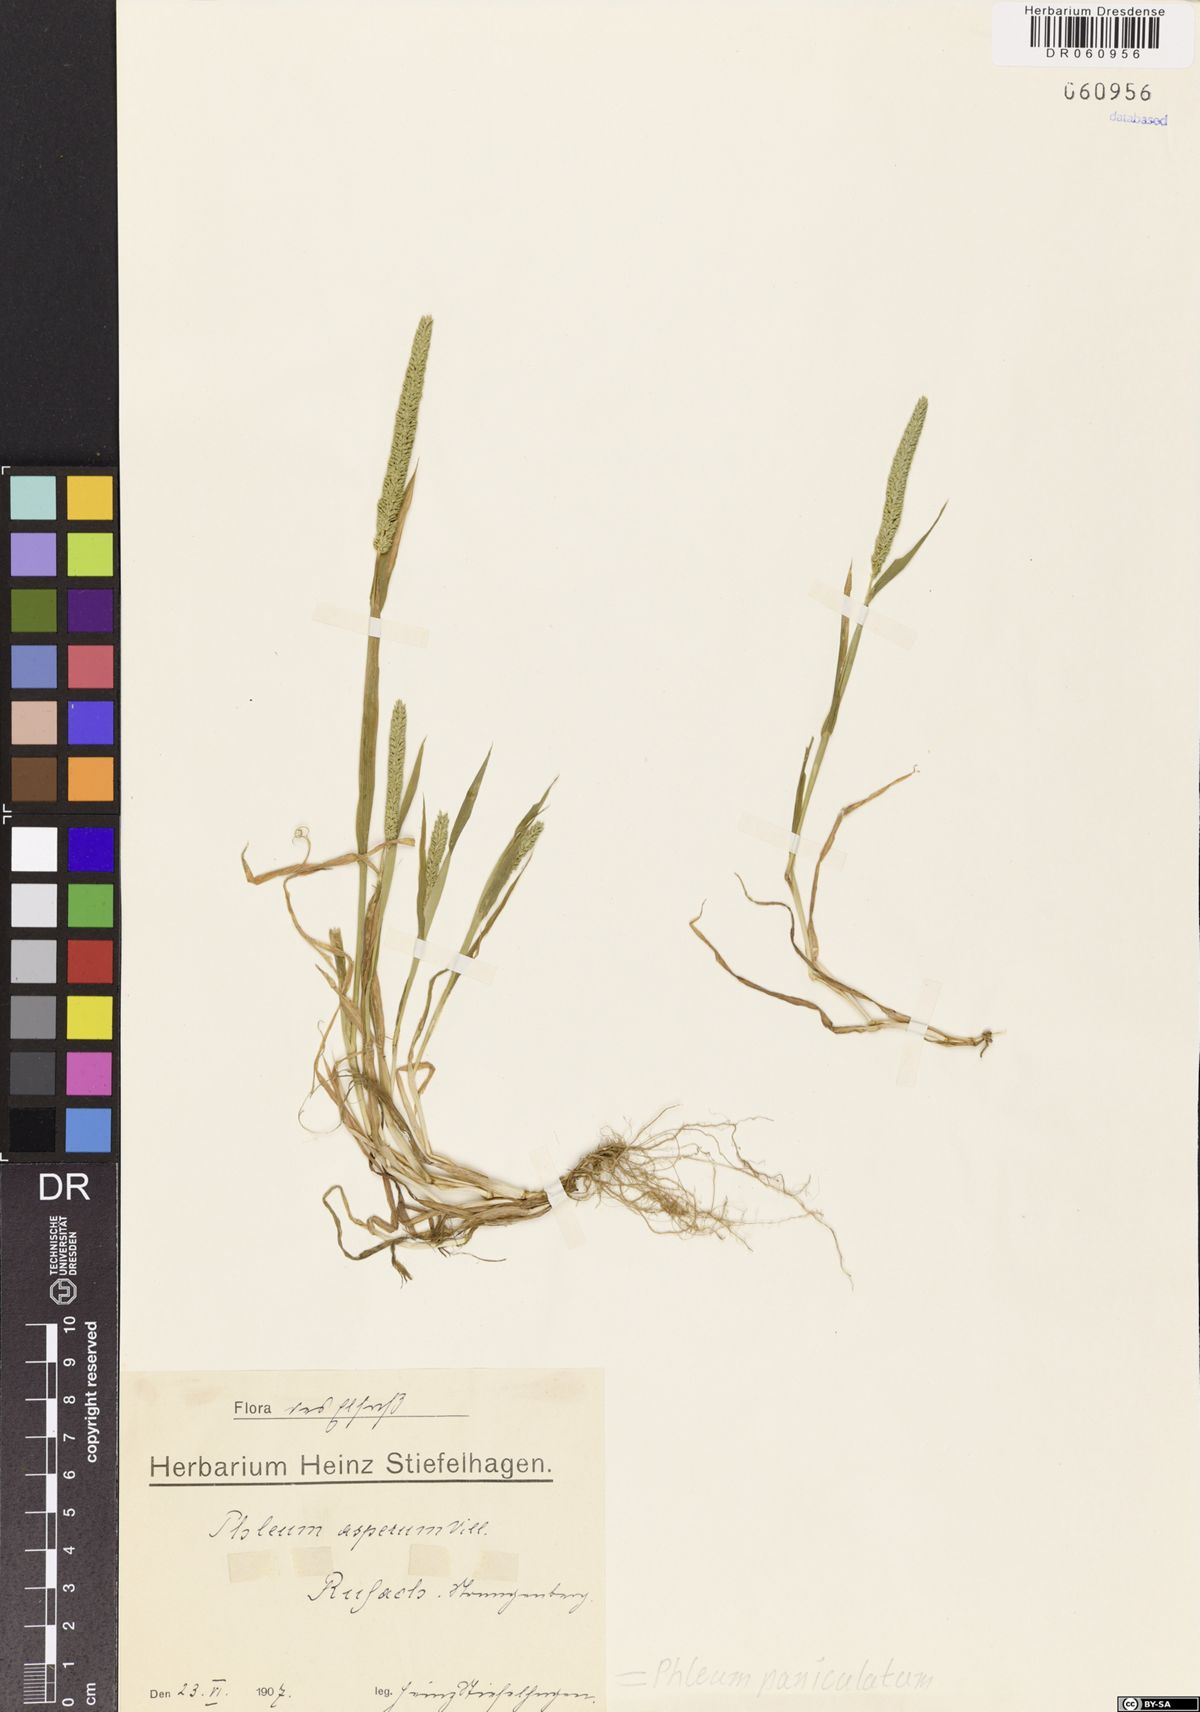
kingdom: Plantae
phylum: Tracheophyta
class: Liliopsida
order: Poales
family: Poaceae
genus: Phleum
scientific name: Phleum paniculatum
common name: British timothy
